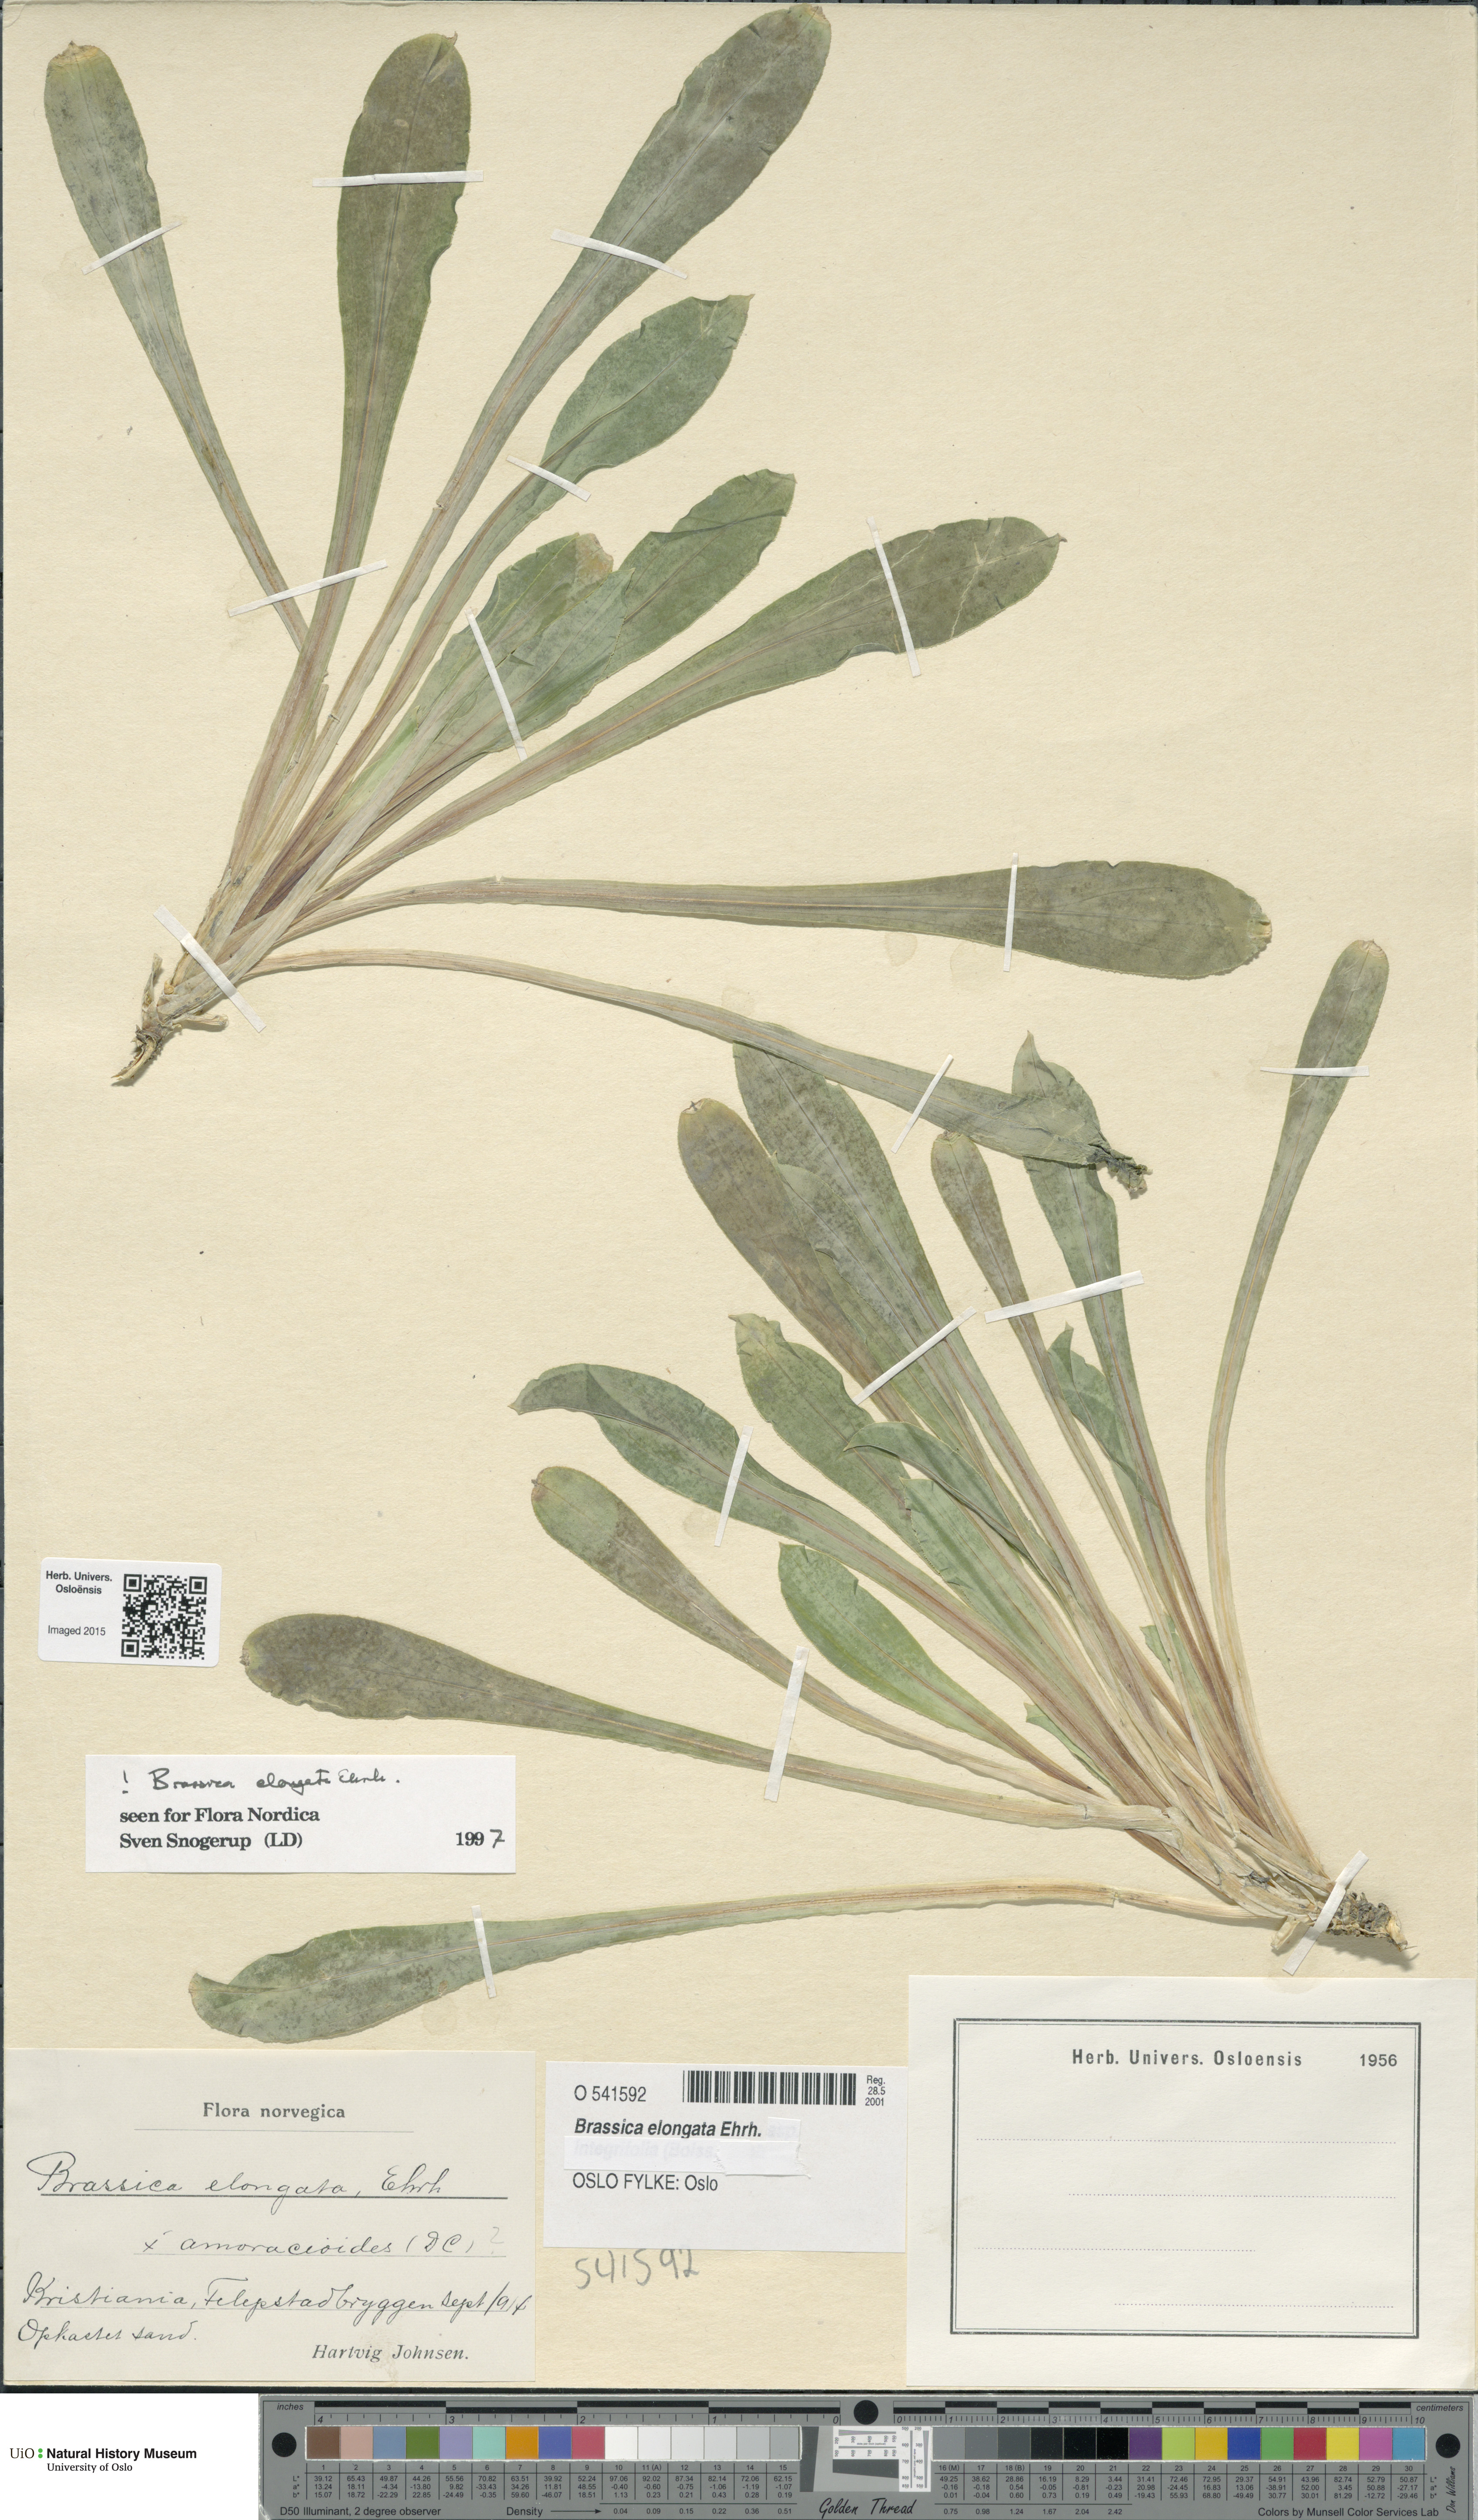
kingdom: Plantae
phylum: Tracheophyta
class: Magnoliopsida
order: Brassicales
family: Brassicaceae
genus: Brassica
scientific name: Brassica elongata
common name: Long-stalked rape
